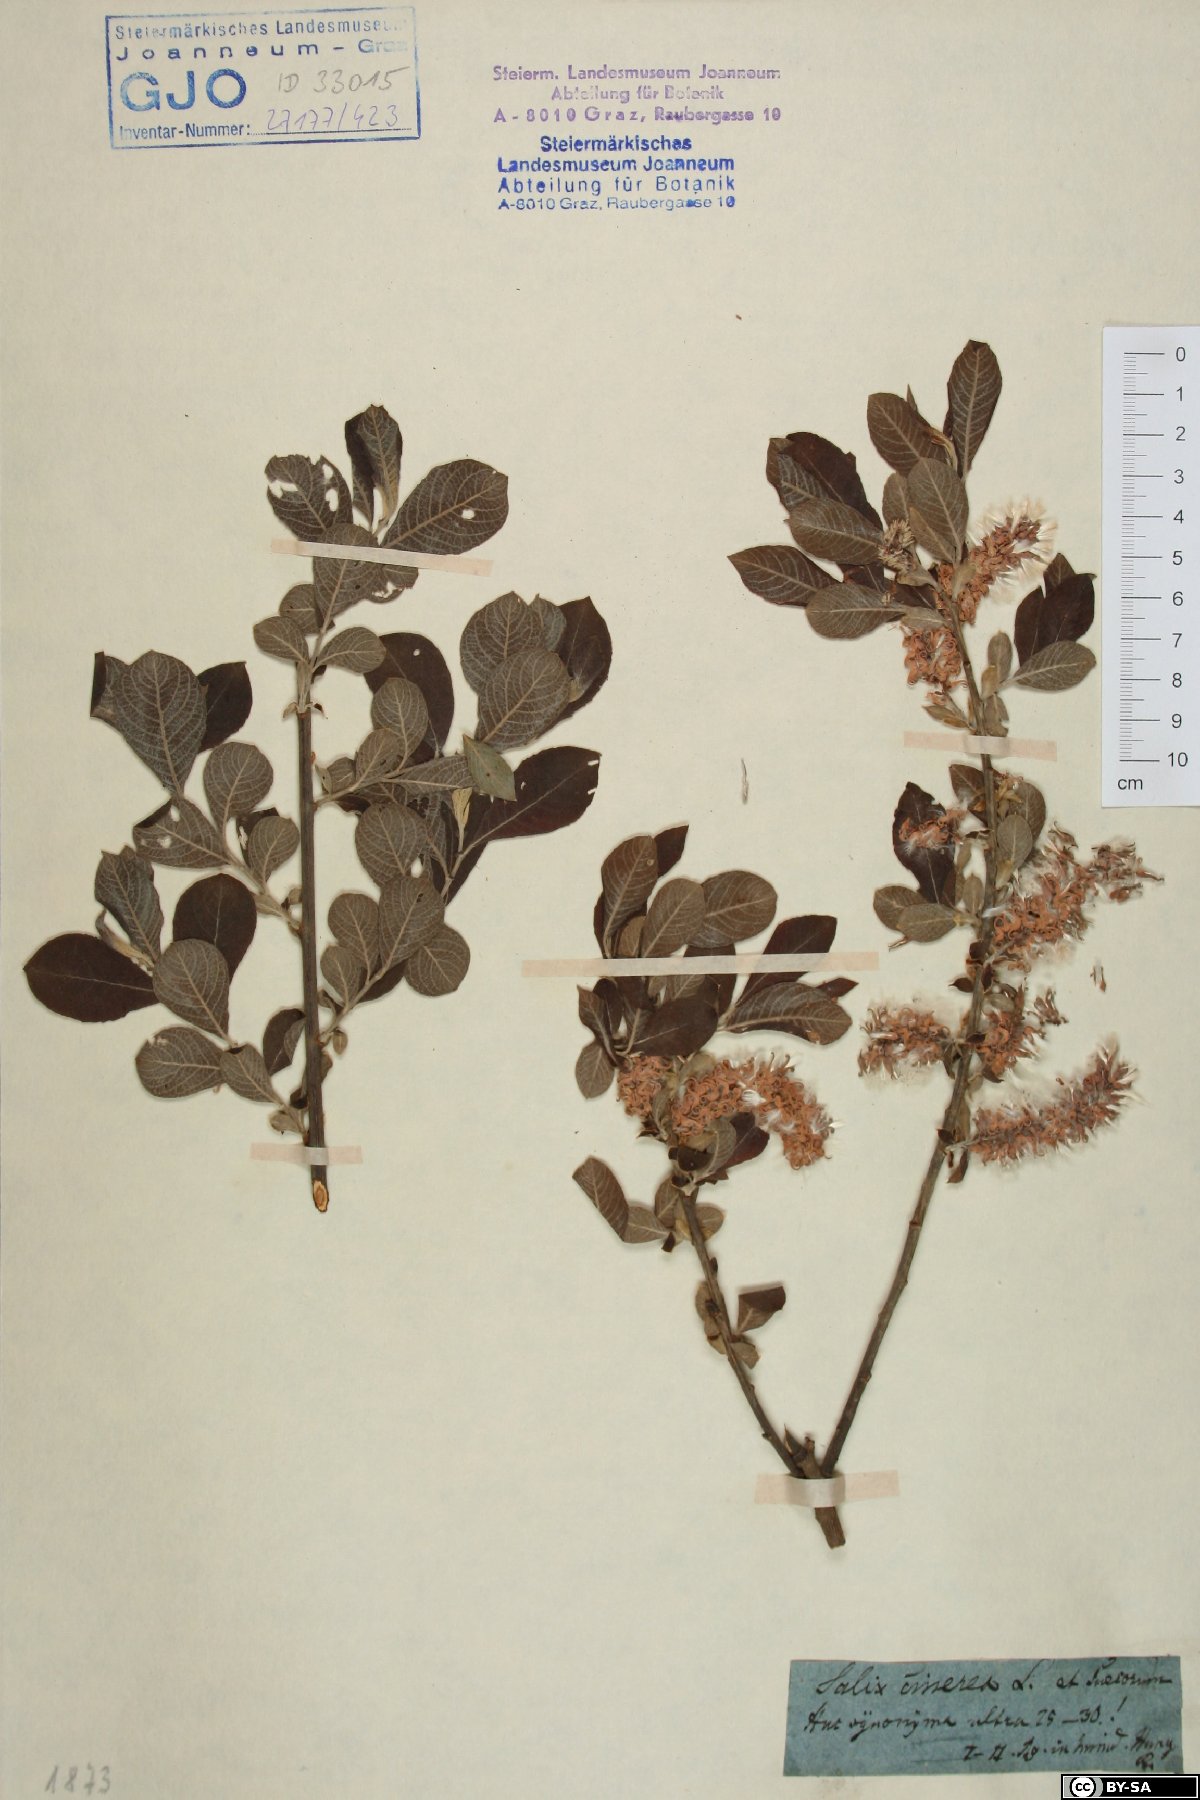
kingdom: Plantae
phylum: Tracheophyta
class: Magnoliopsida
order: Malpighiales
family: Salicaceae
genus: Salix
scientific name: Salix cinerea
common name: Common sallow
